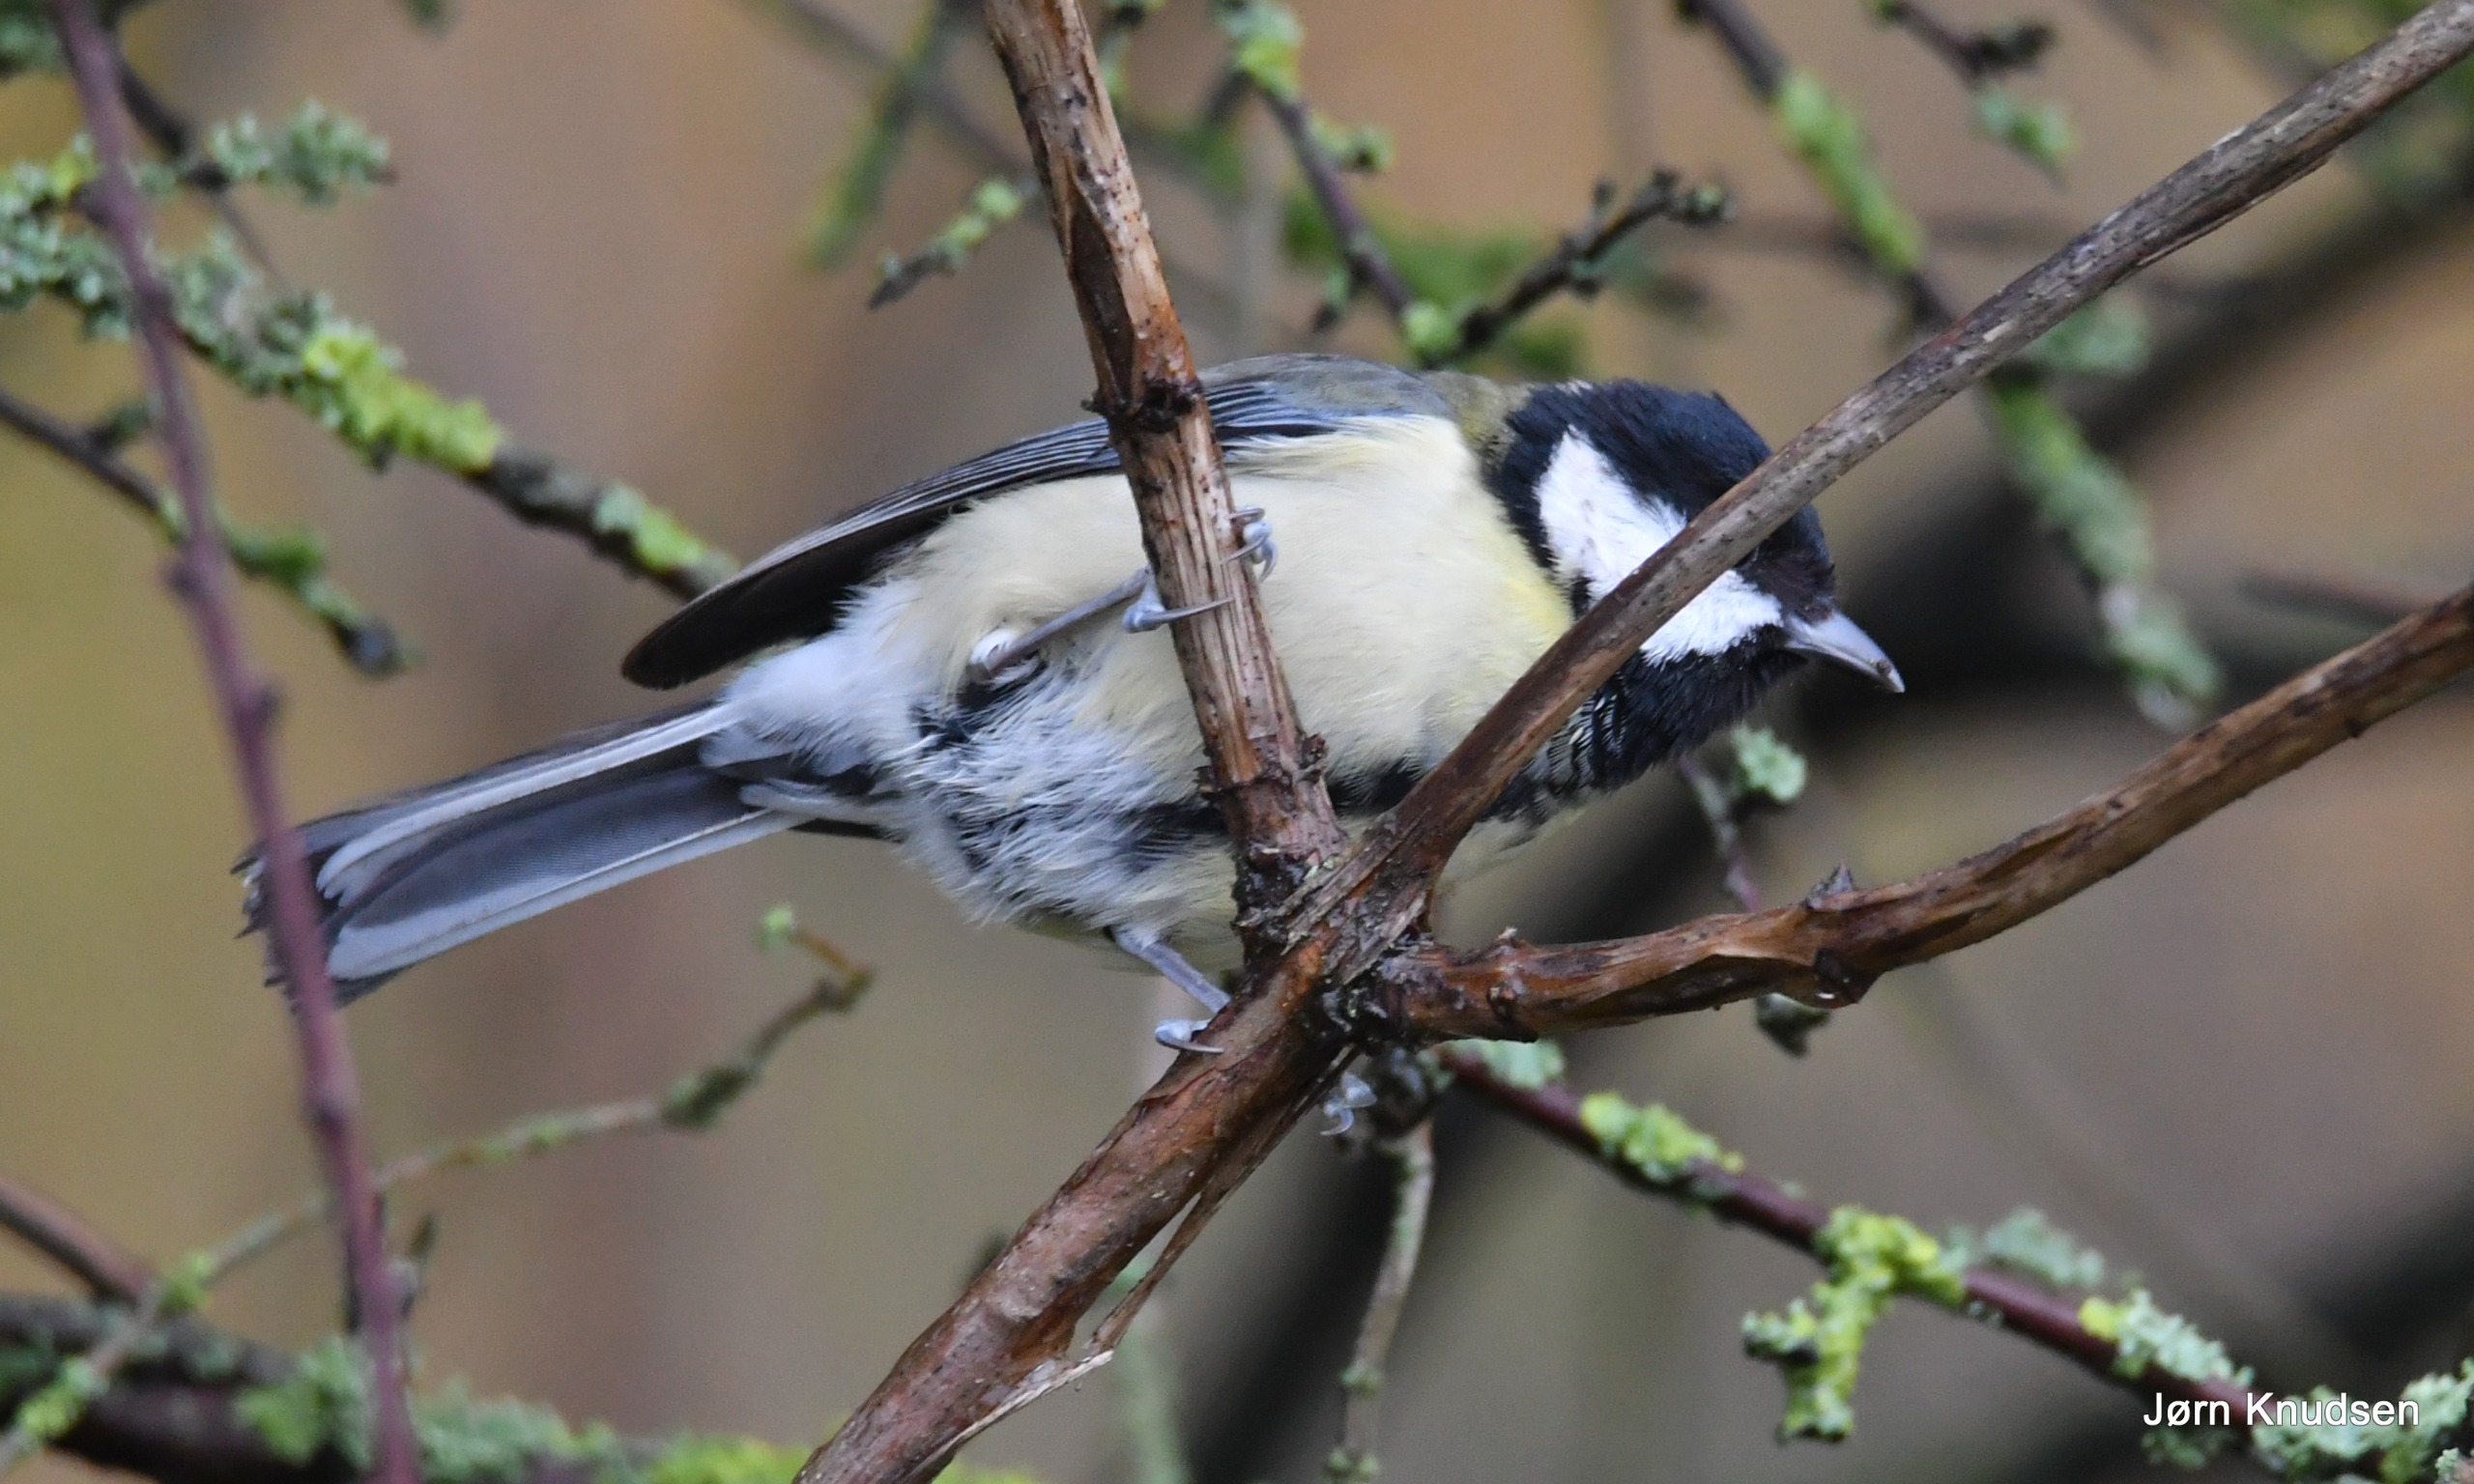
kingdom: Animalia
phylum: Chordata
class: Aves
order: Passeriformes
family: Paridae
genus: Parus
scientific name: Parus major
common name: Musvit
